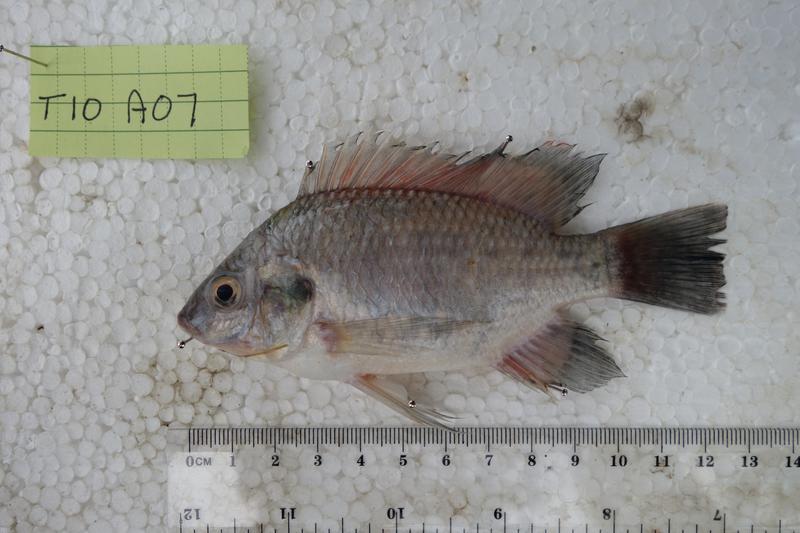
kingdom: Animalia
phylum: Chordata
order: Perciformes
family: Cichlidae
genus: Oreochromis
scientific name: Oreochromis rukwaensis
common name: Lake rukwa tilapia
